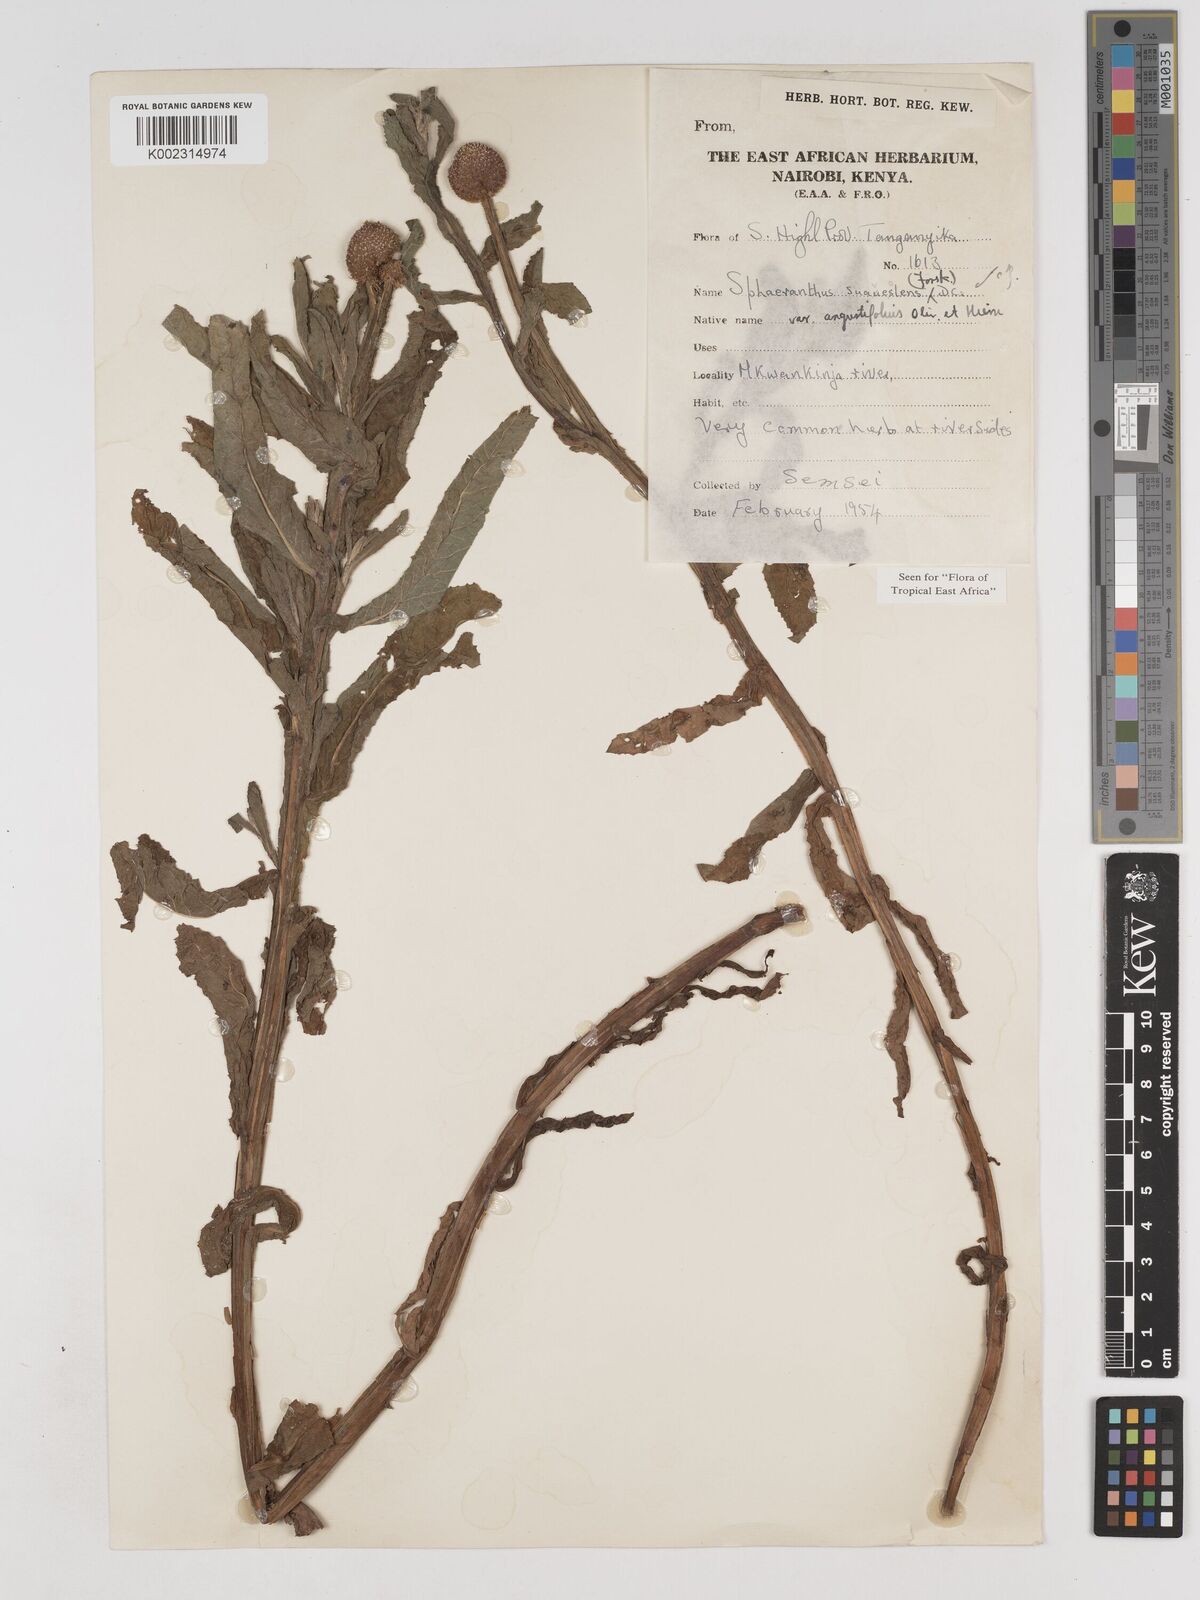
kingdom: Plantae
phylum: Tracheophyta
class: Magnoliopsida
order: Asterales
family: Asteraceae
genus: Sphaeranthus
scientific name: Sphaeranthus suaveolens
